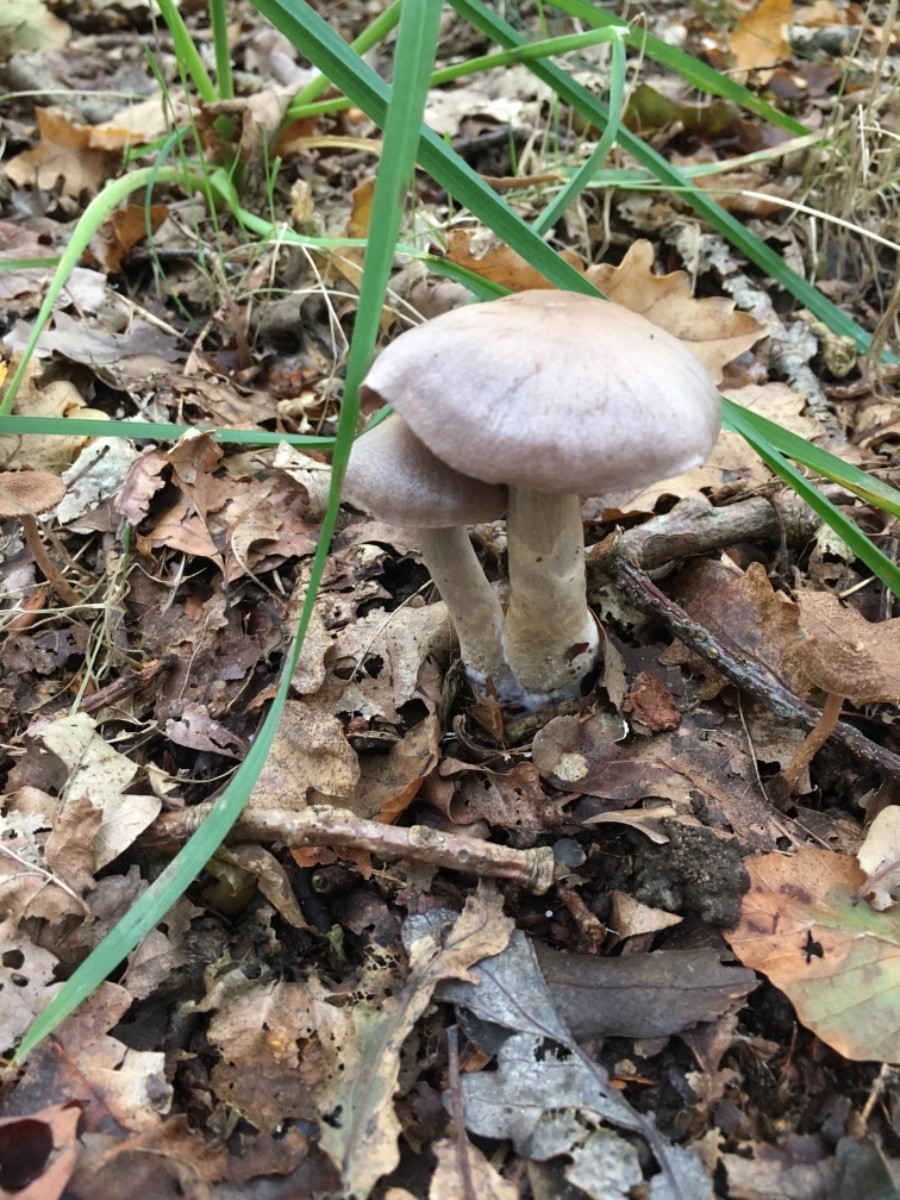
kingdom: Fungi
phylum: Basidiomycota
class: Agaricomycetes
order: Agaricales
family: Cortinariaceae
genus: Cortinarius
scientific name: Cortinarius
